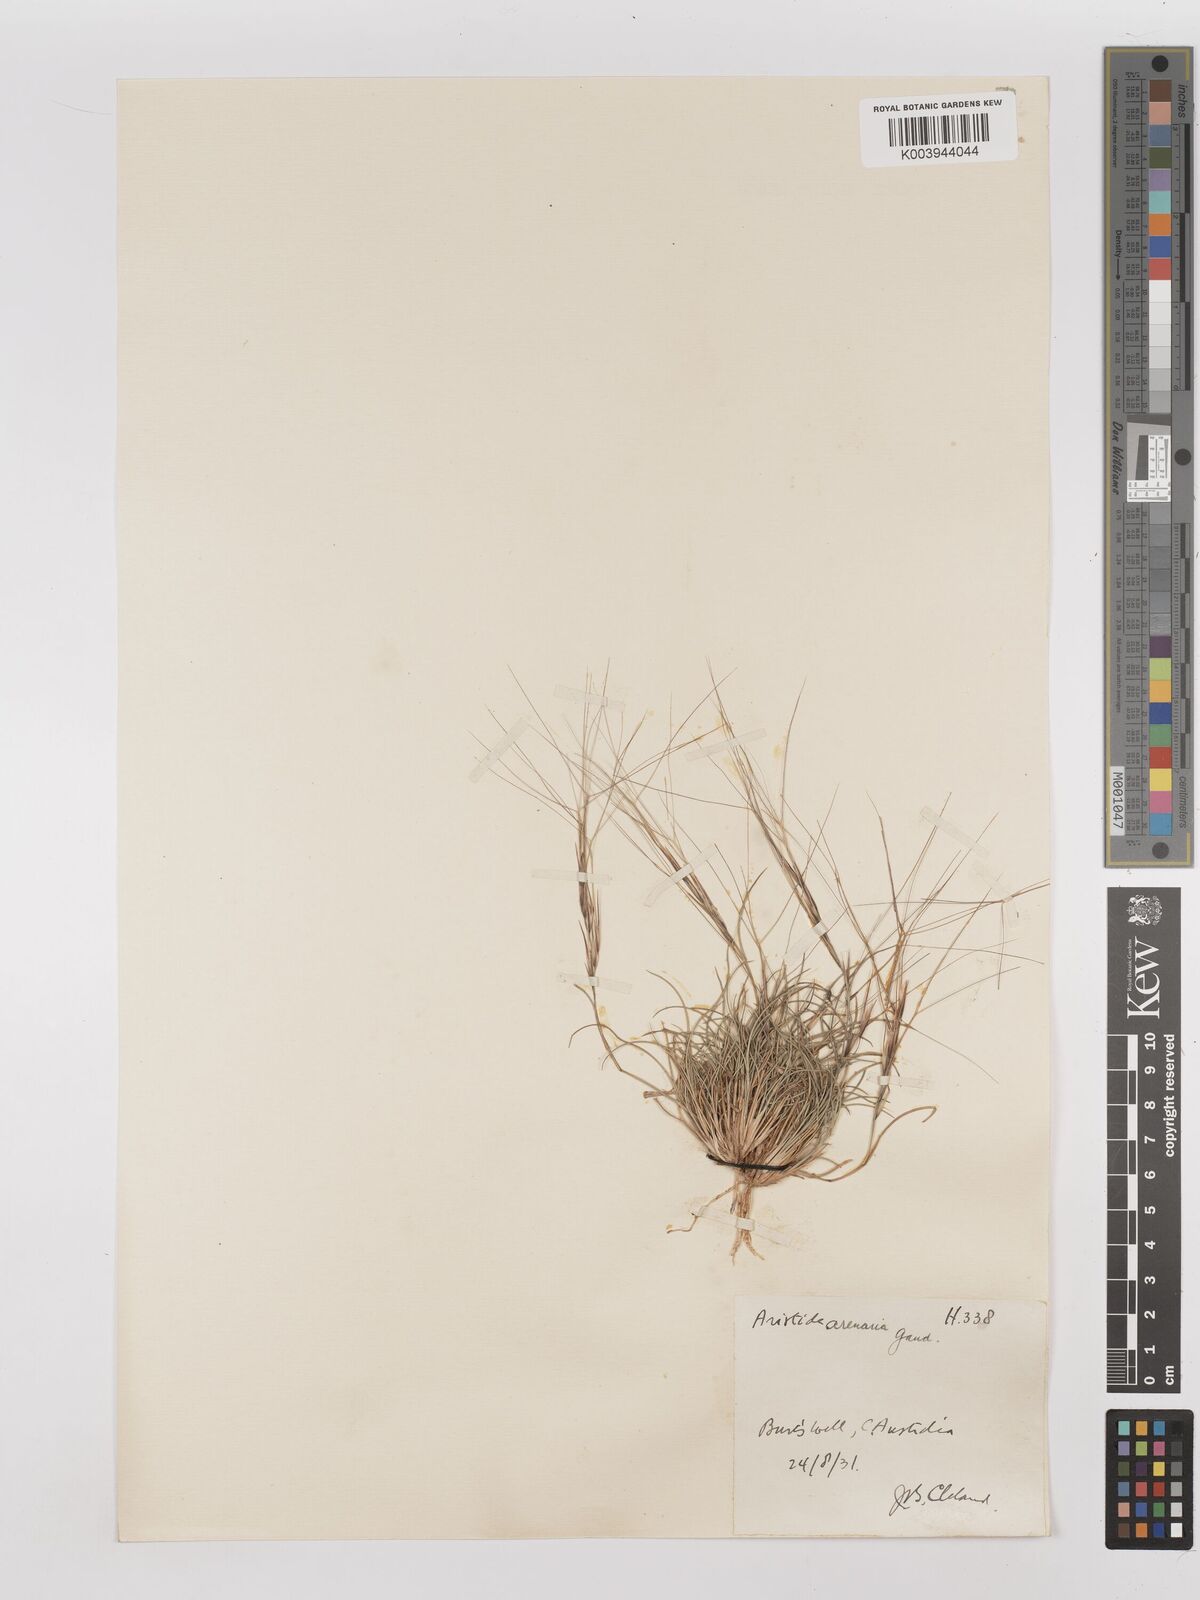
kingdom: Plantae
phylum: Tracheophyta
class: Liliopsida
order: Poales
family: Poaceae
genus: Aristida
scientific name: Aristida contorta
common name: Bunch kerosene grass
